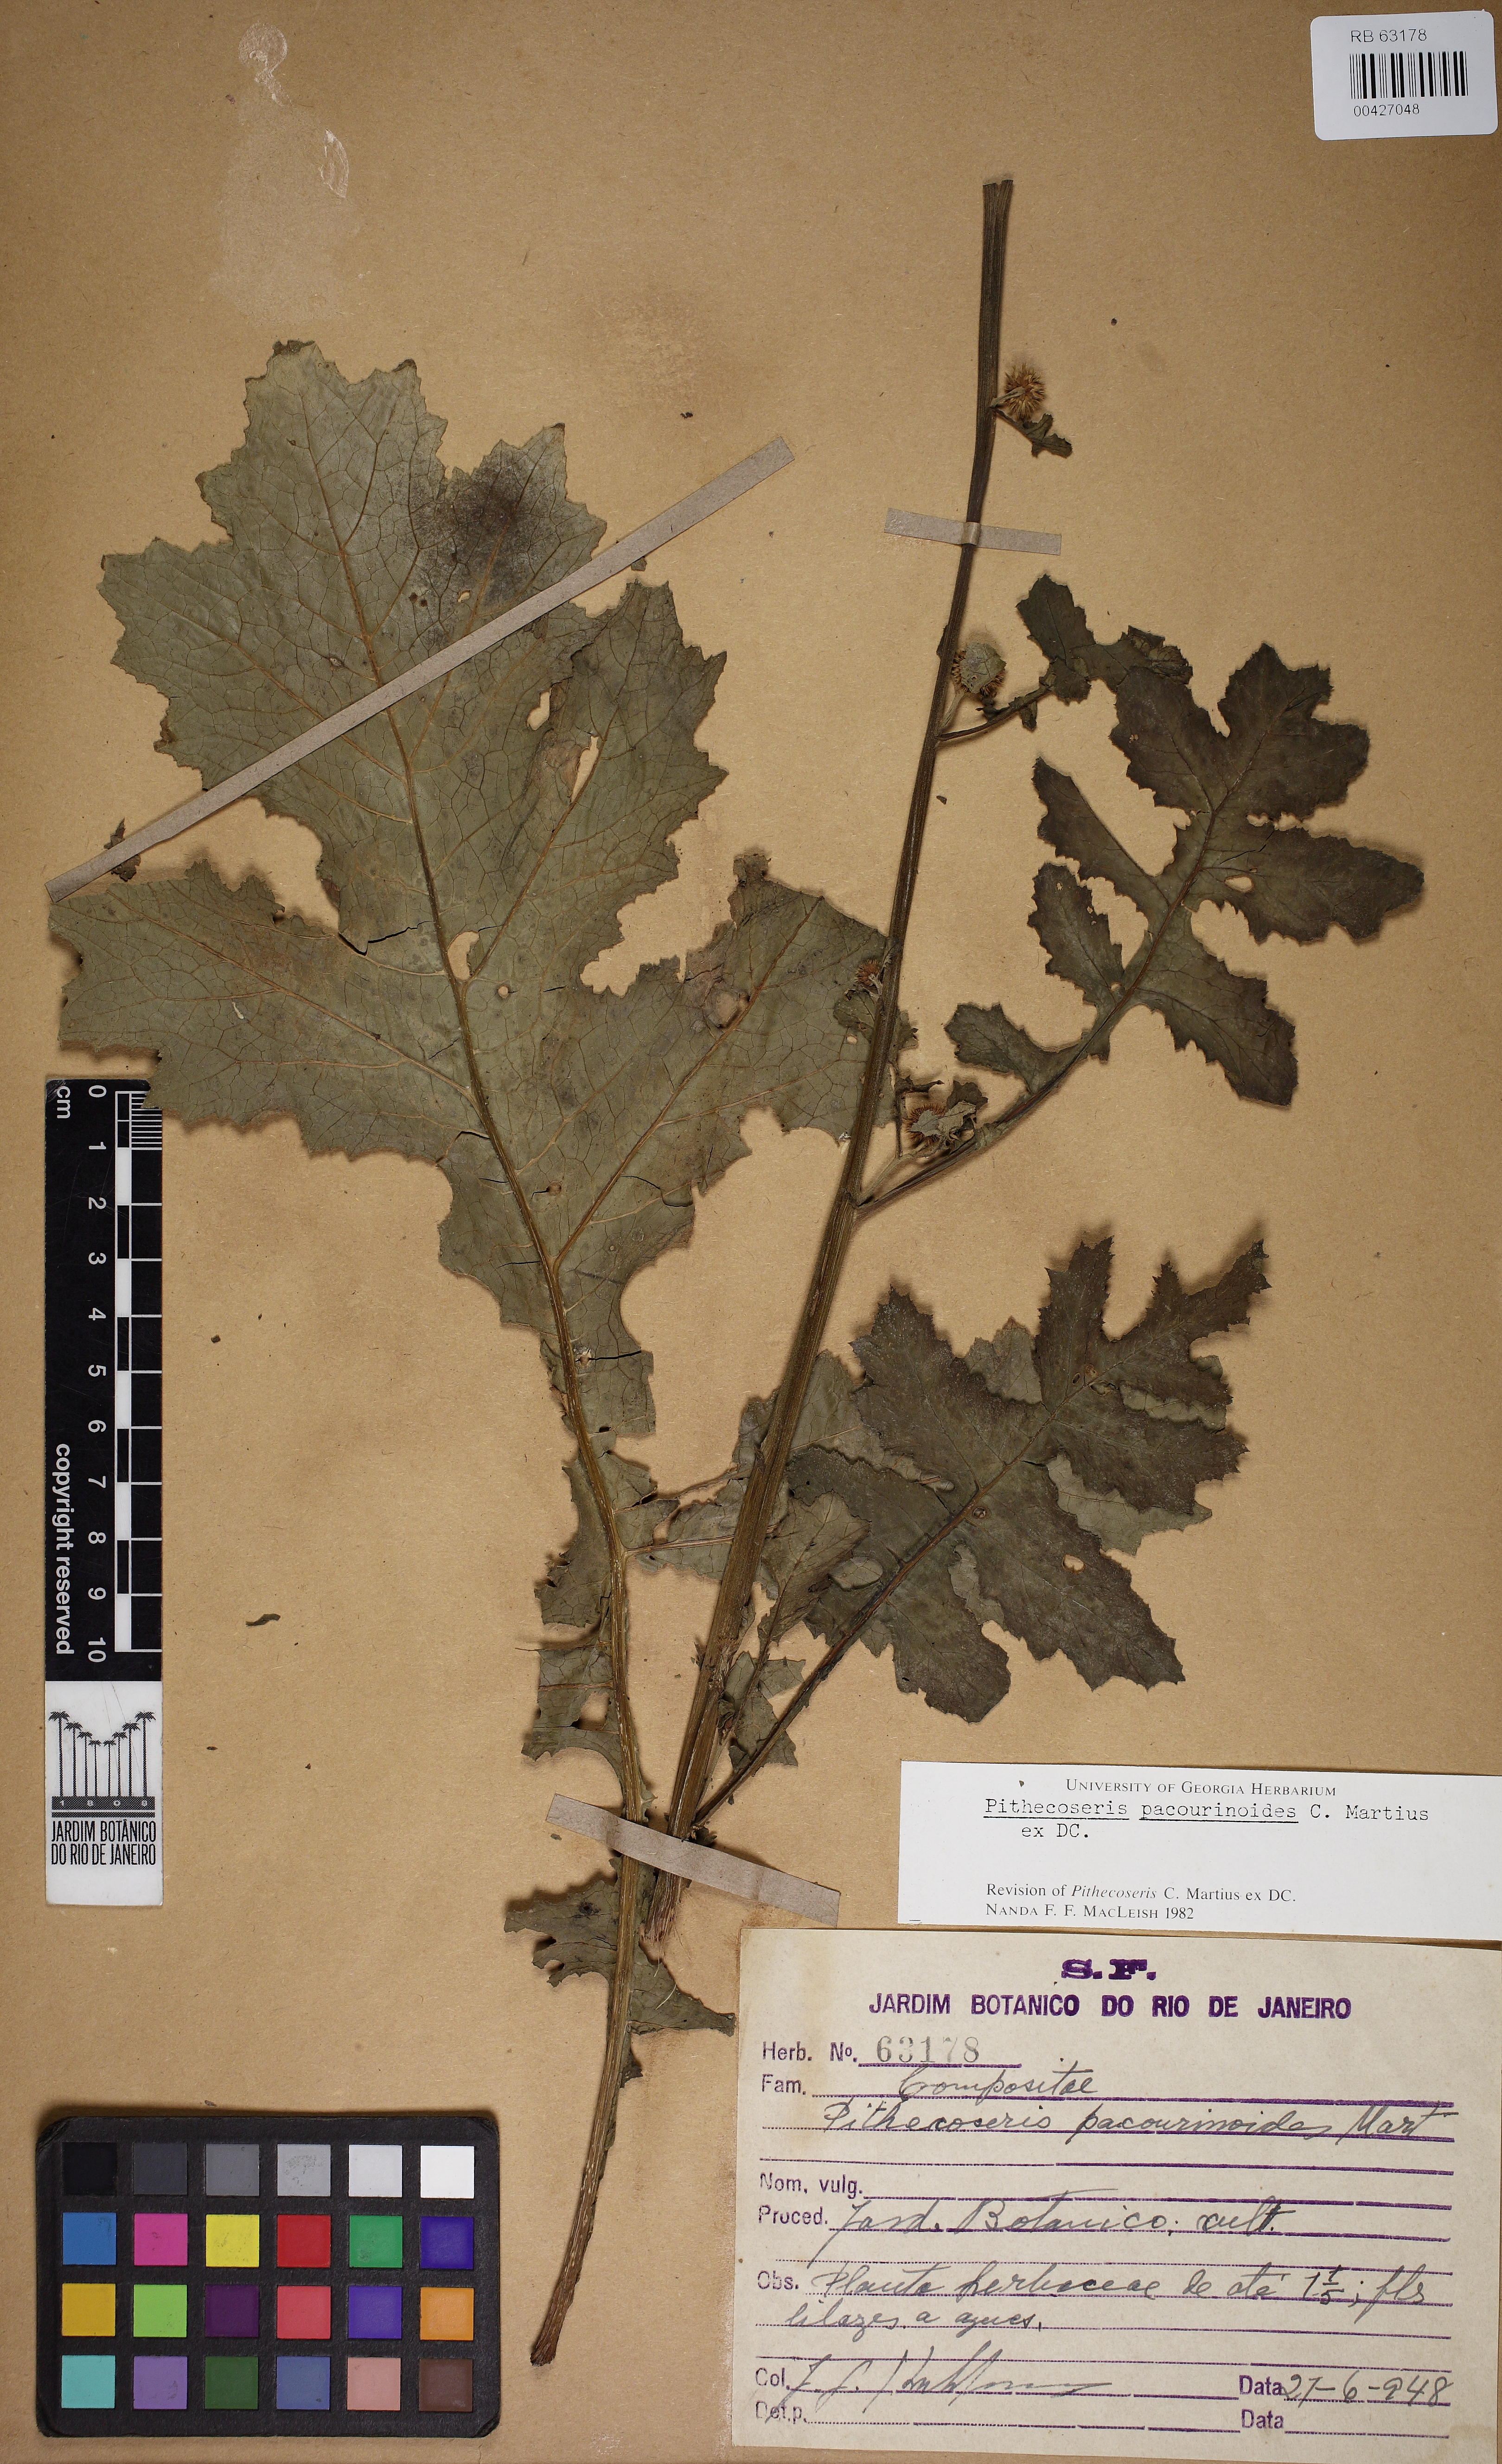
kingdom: Plantae
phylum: Tracheophyta
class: Magnoliopsida
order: Asterales
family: Asteraceae
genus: Chresta
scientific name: Chresta pacourinoides
